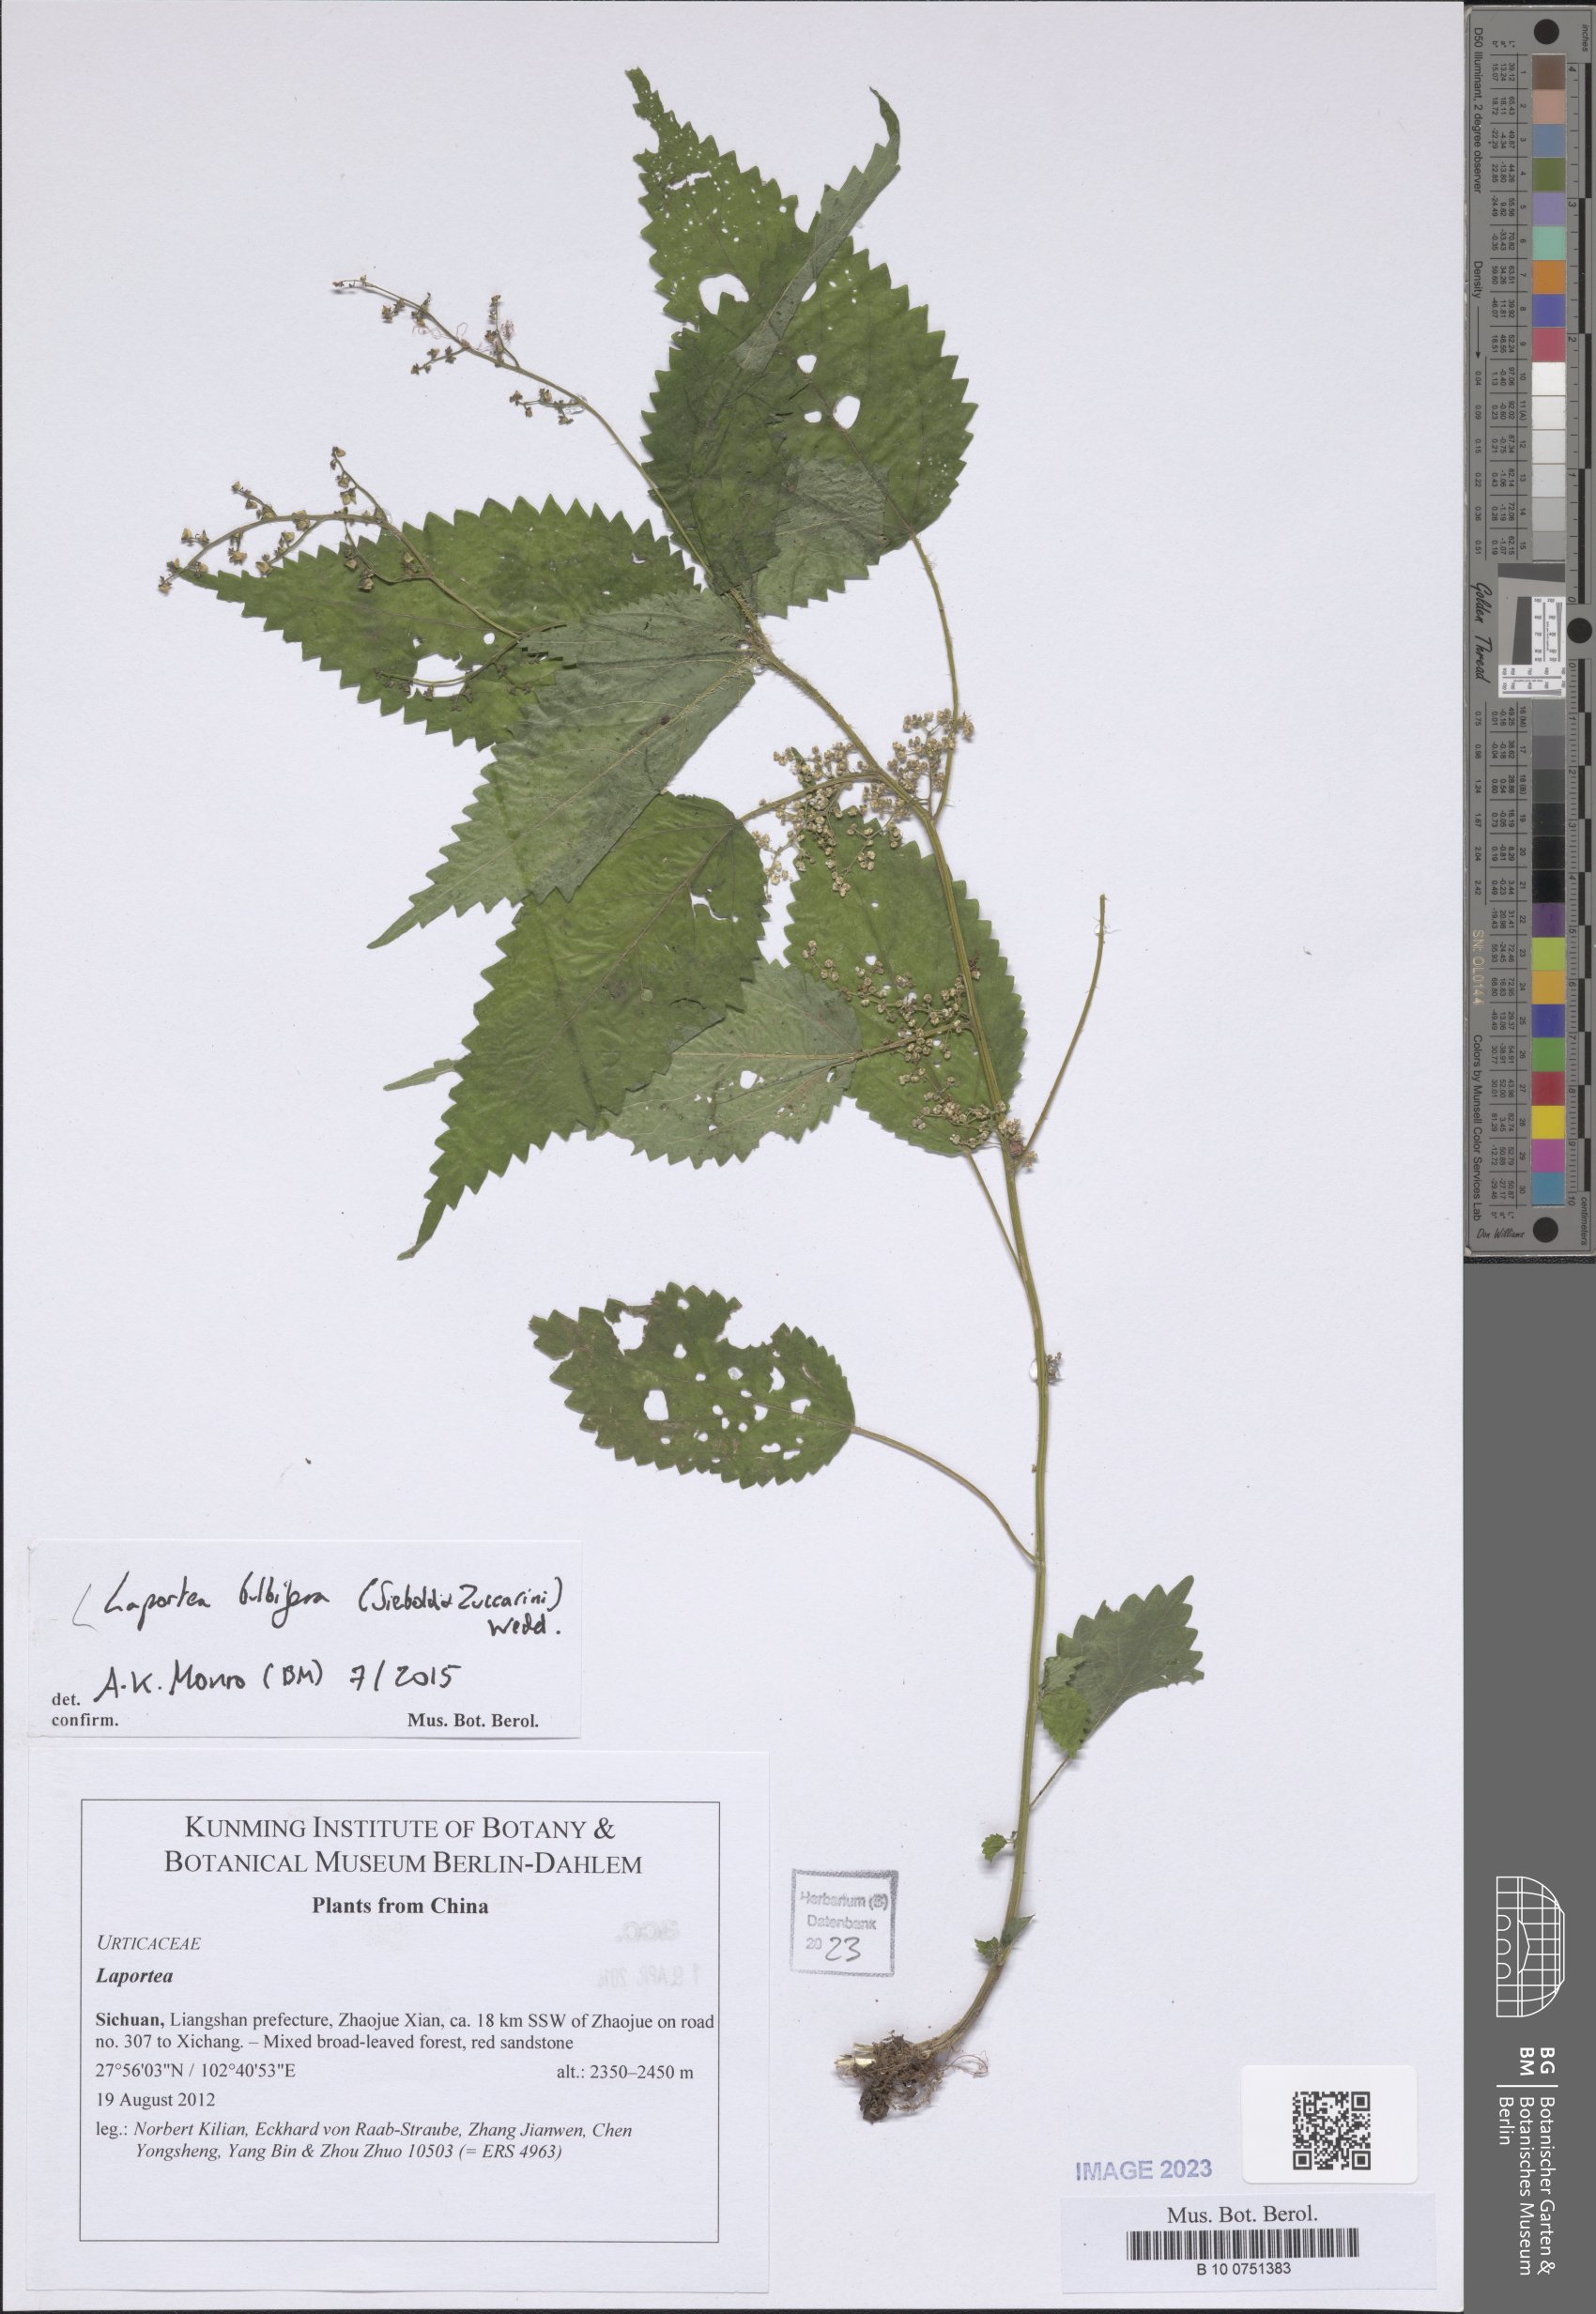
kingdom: Plantae
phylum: Tracheophyta
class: Magnoliopsida
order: Rosales
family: Urticaceae
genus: Laportea
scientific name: Laportea bulbifera
